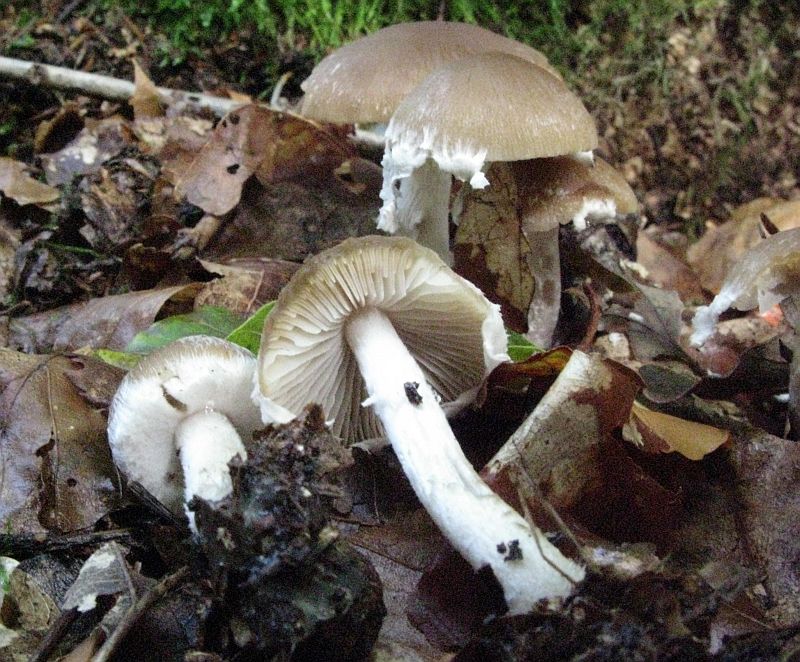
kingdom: Fungi
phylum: Basidiomycota
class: Agaricomycetes
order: Agaricales
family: Psathyrellaceae
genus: Psathyrella
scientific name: Psathyrella rostellata
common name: næbbet mørkhat
